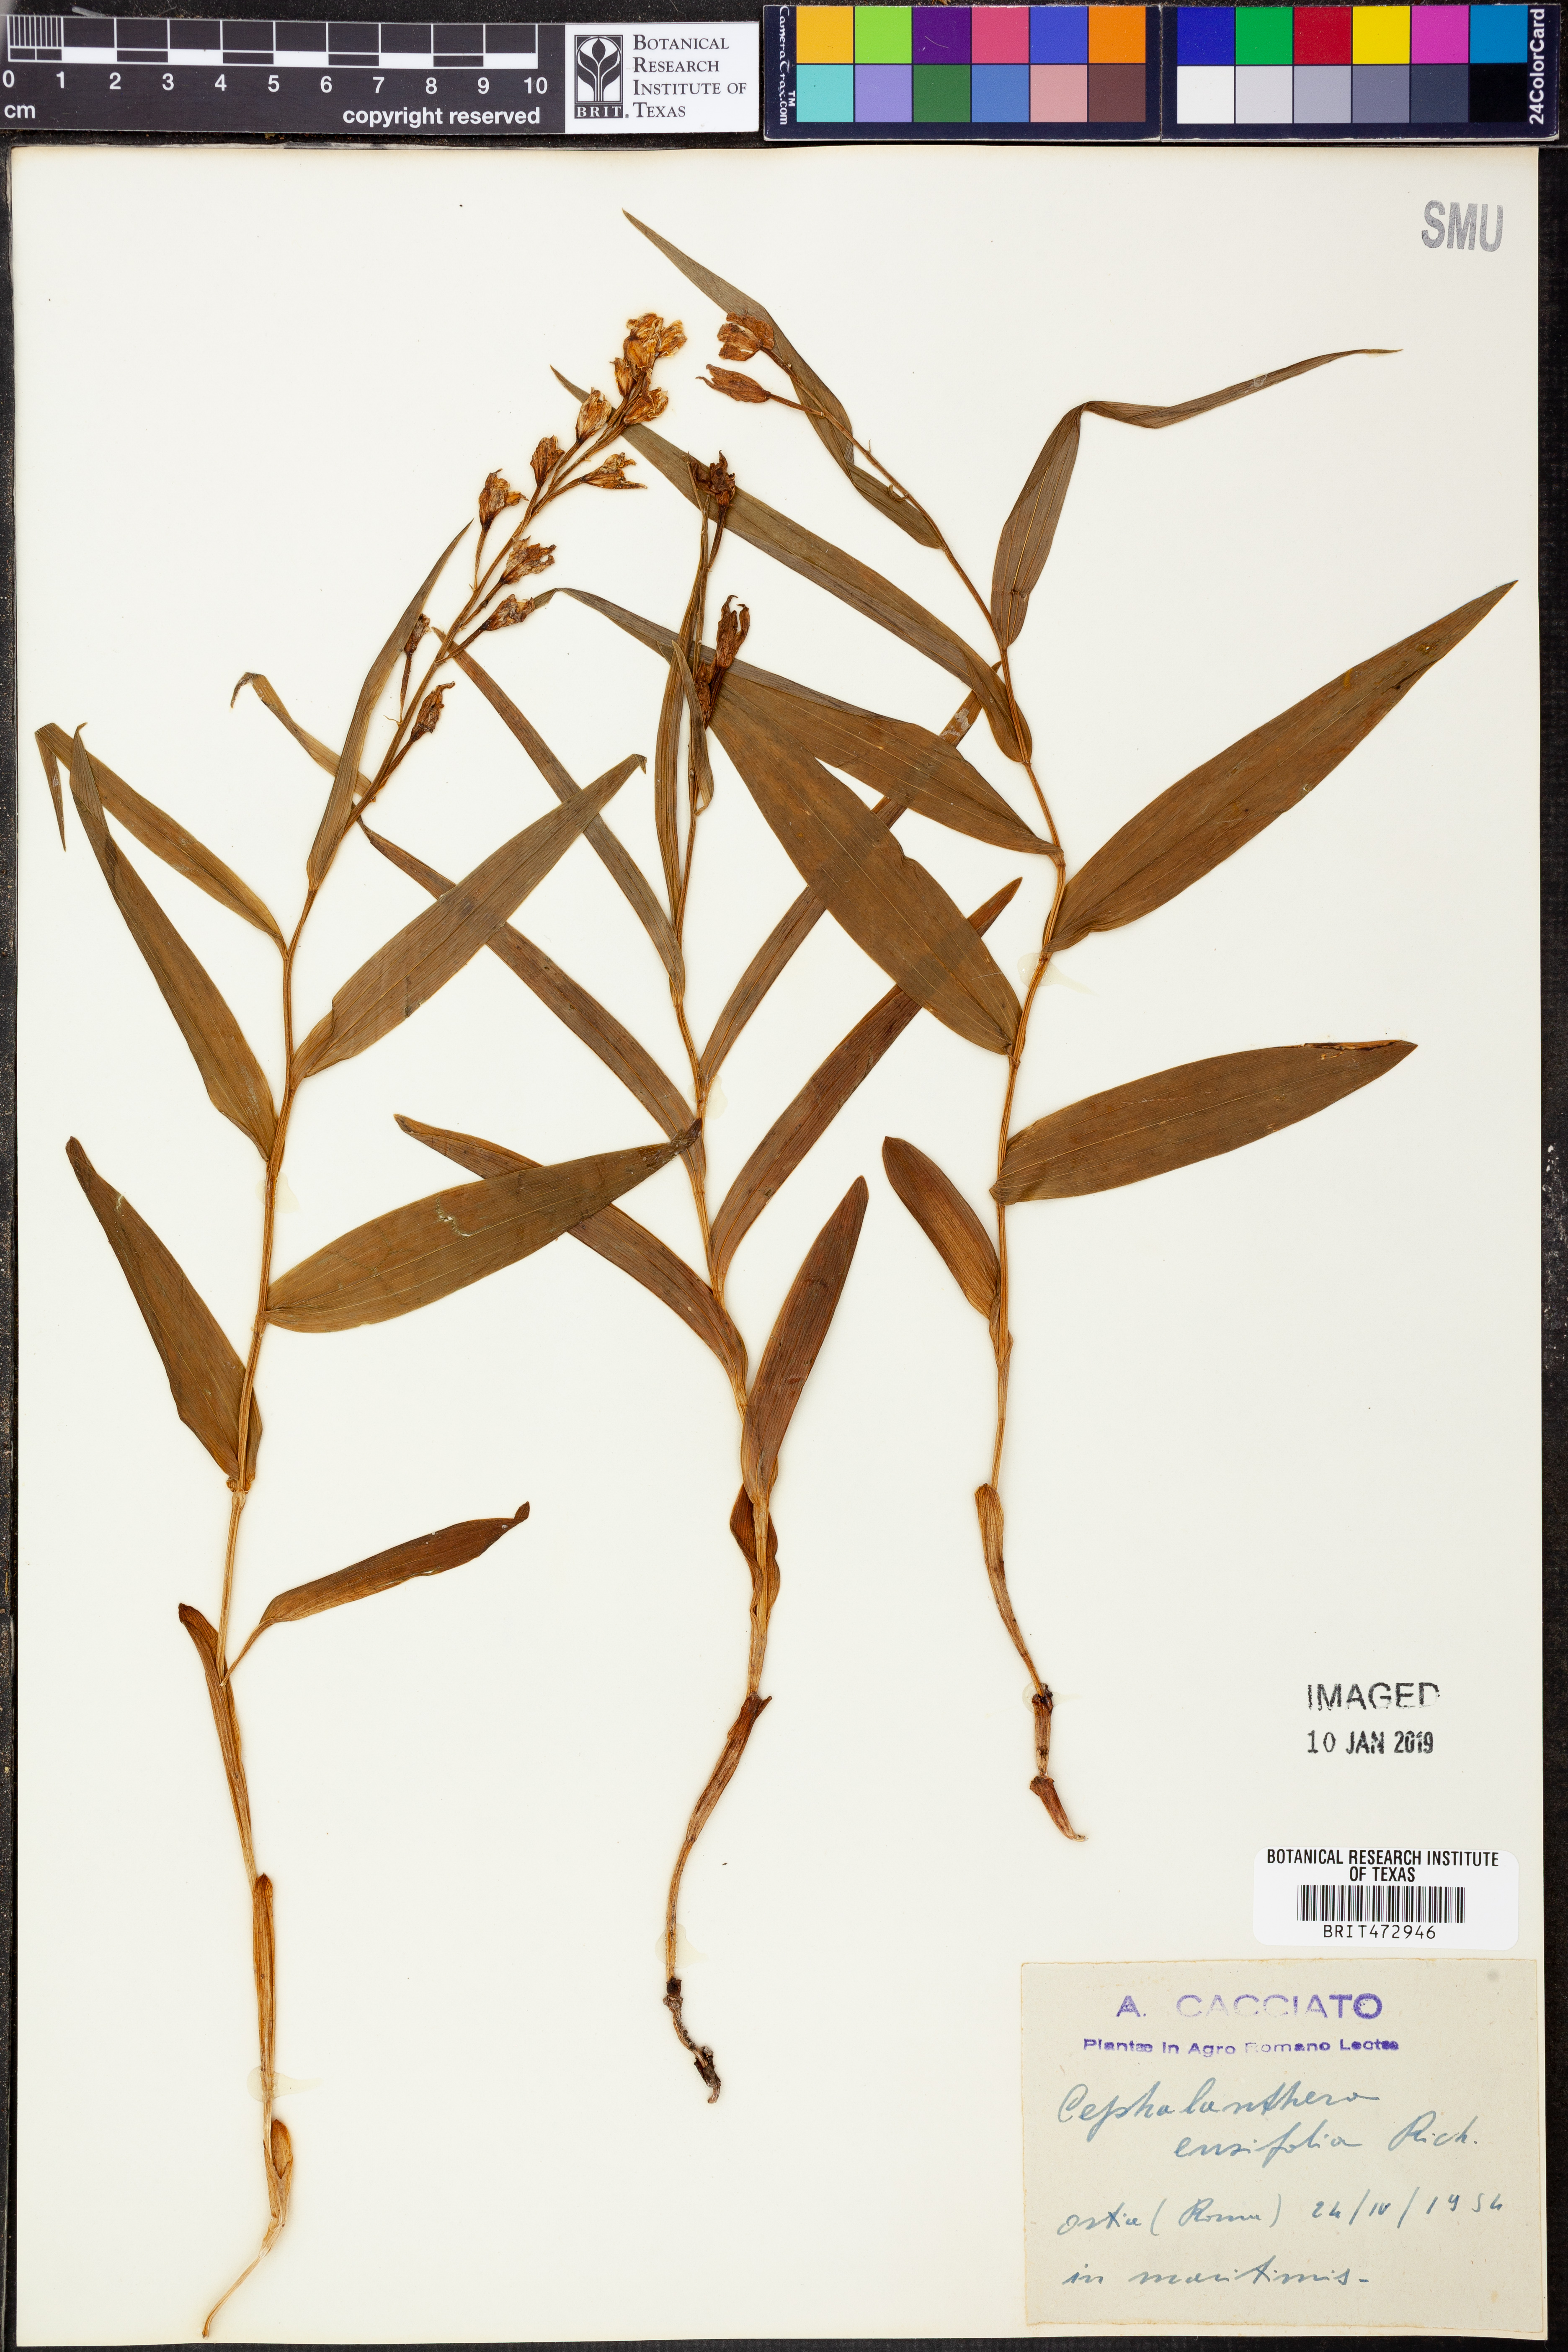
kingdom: Plantae
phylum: Tracheophyta
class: Liliopsida
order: Asparagales
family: Orchidaceae
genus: Cephalanthera
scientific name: Cephalanthera longifolia
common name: Narrow-leaved helleborine
